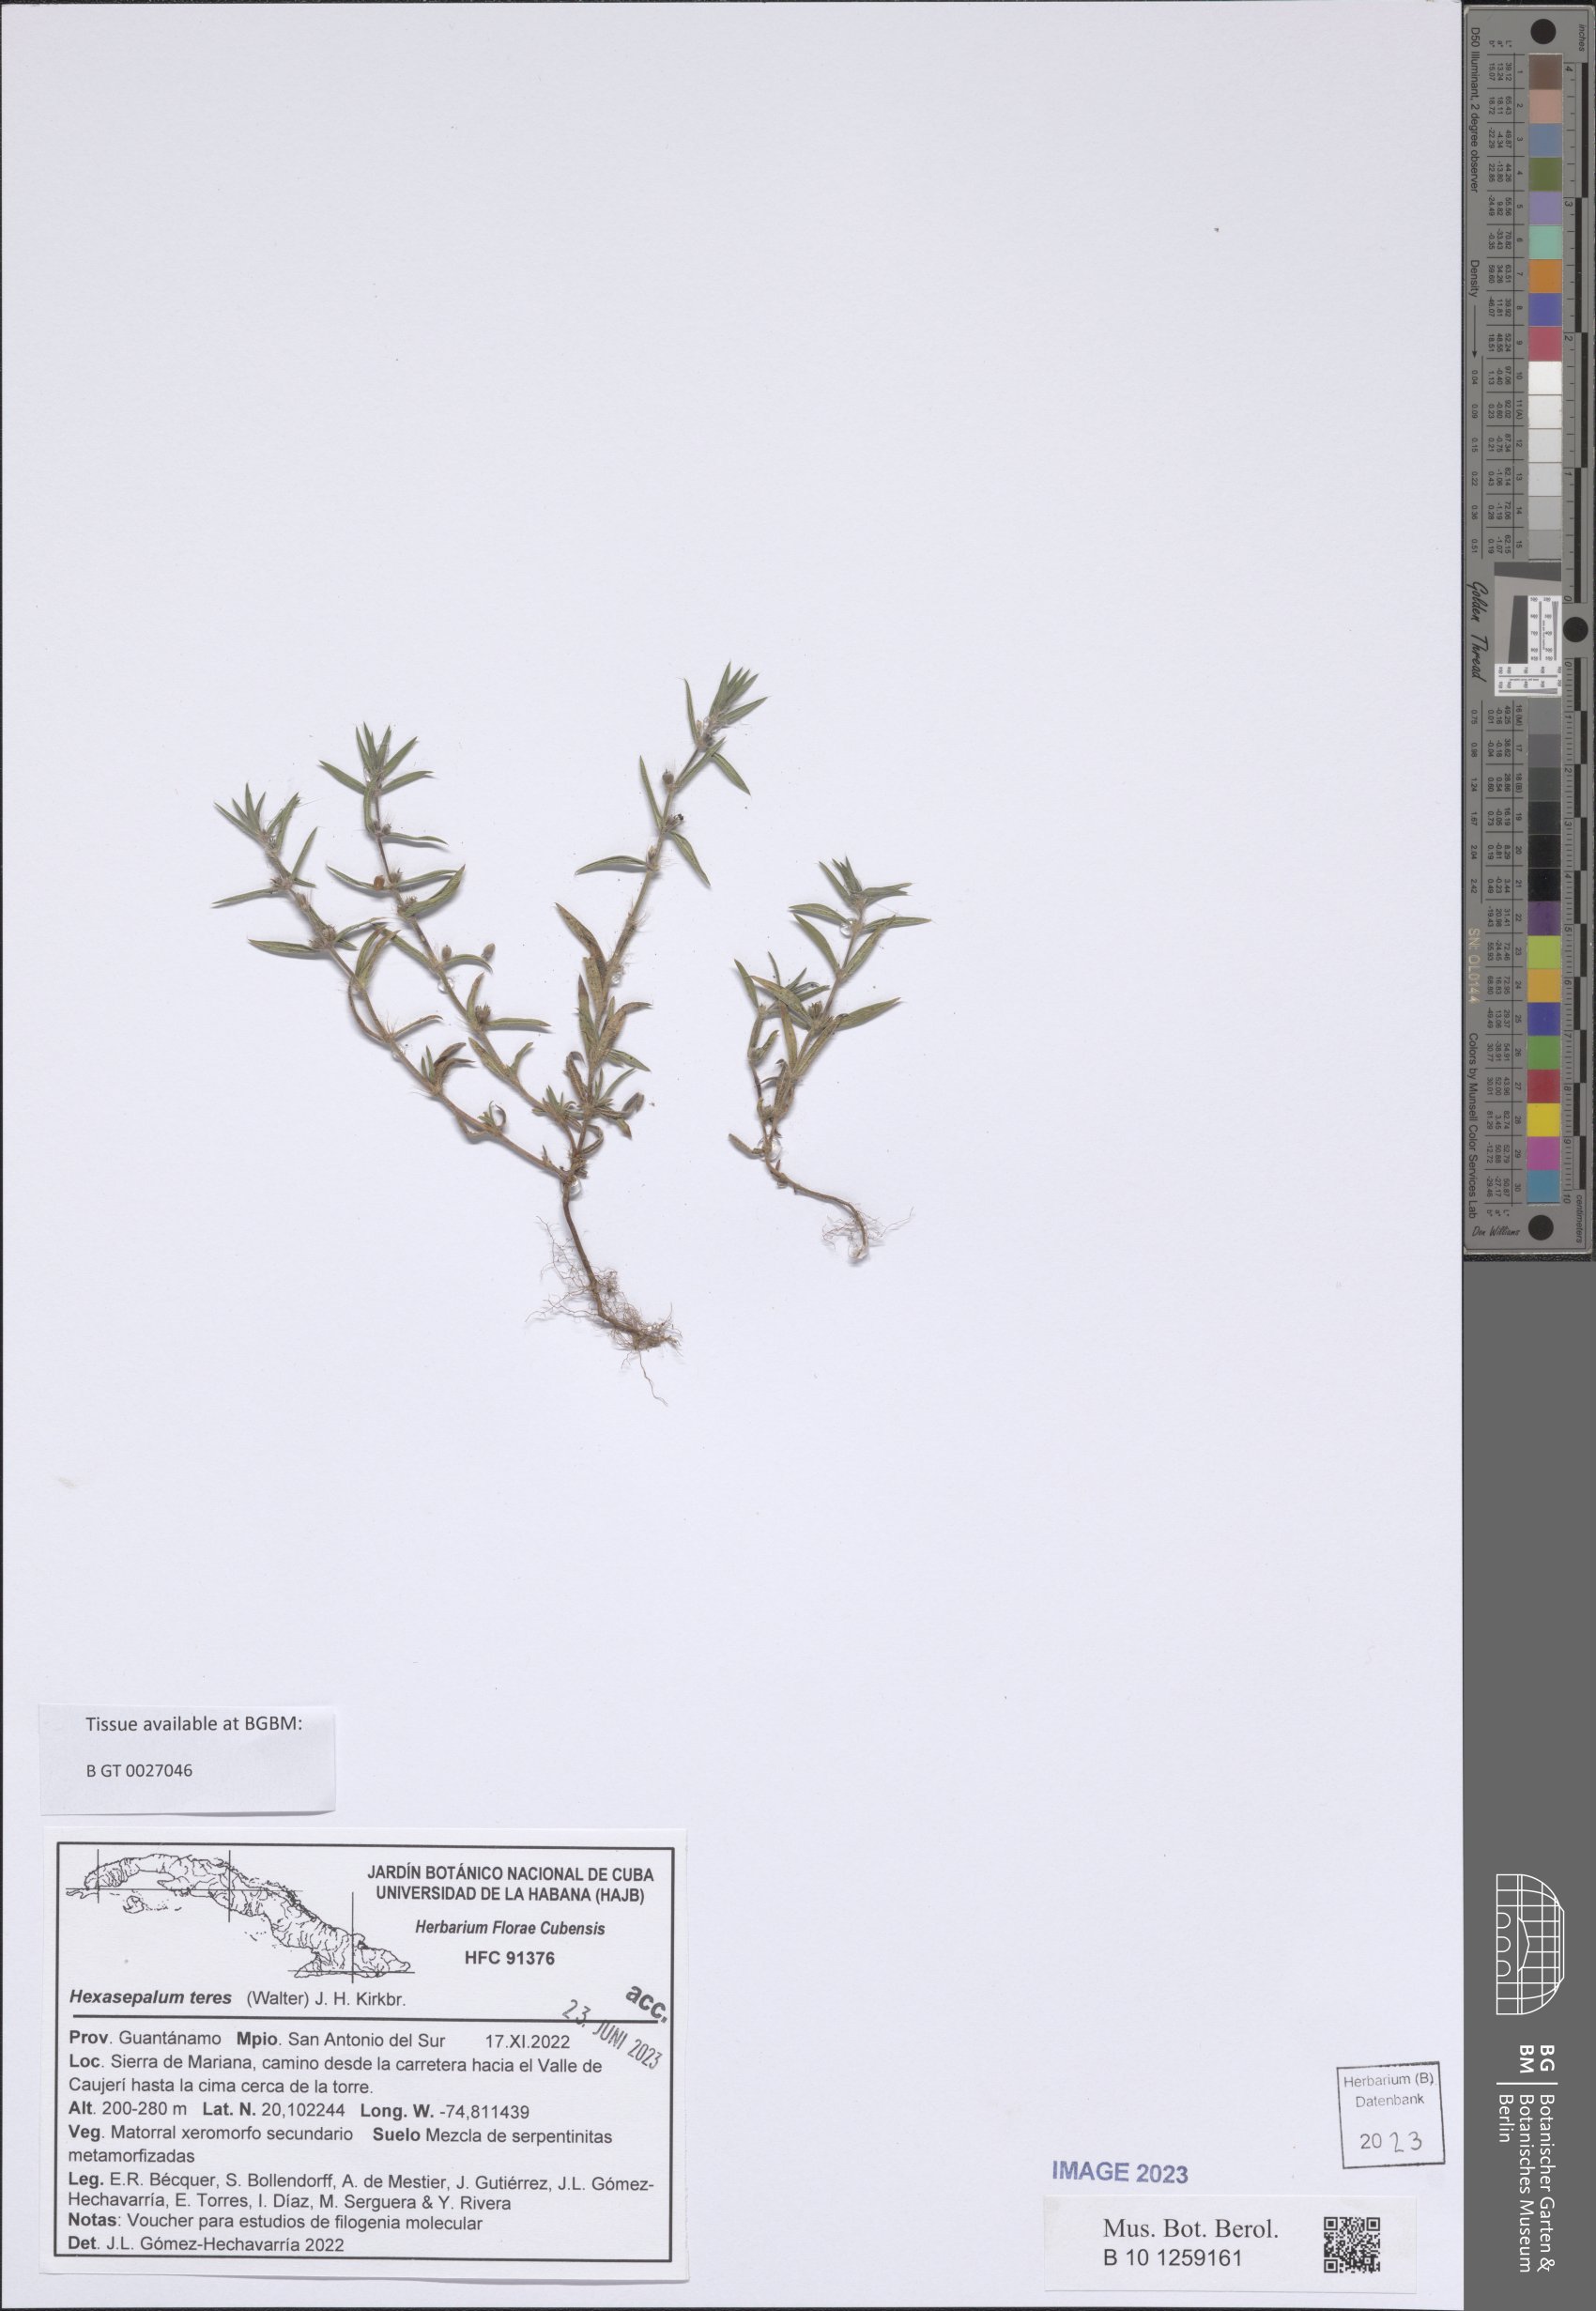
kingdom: Plantae
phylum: Tracheophyta
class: Magnoliopsida
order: Gentianales
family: Rubiaceae
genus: Hexasepalum
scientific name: Hexasepalum teres
